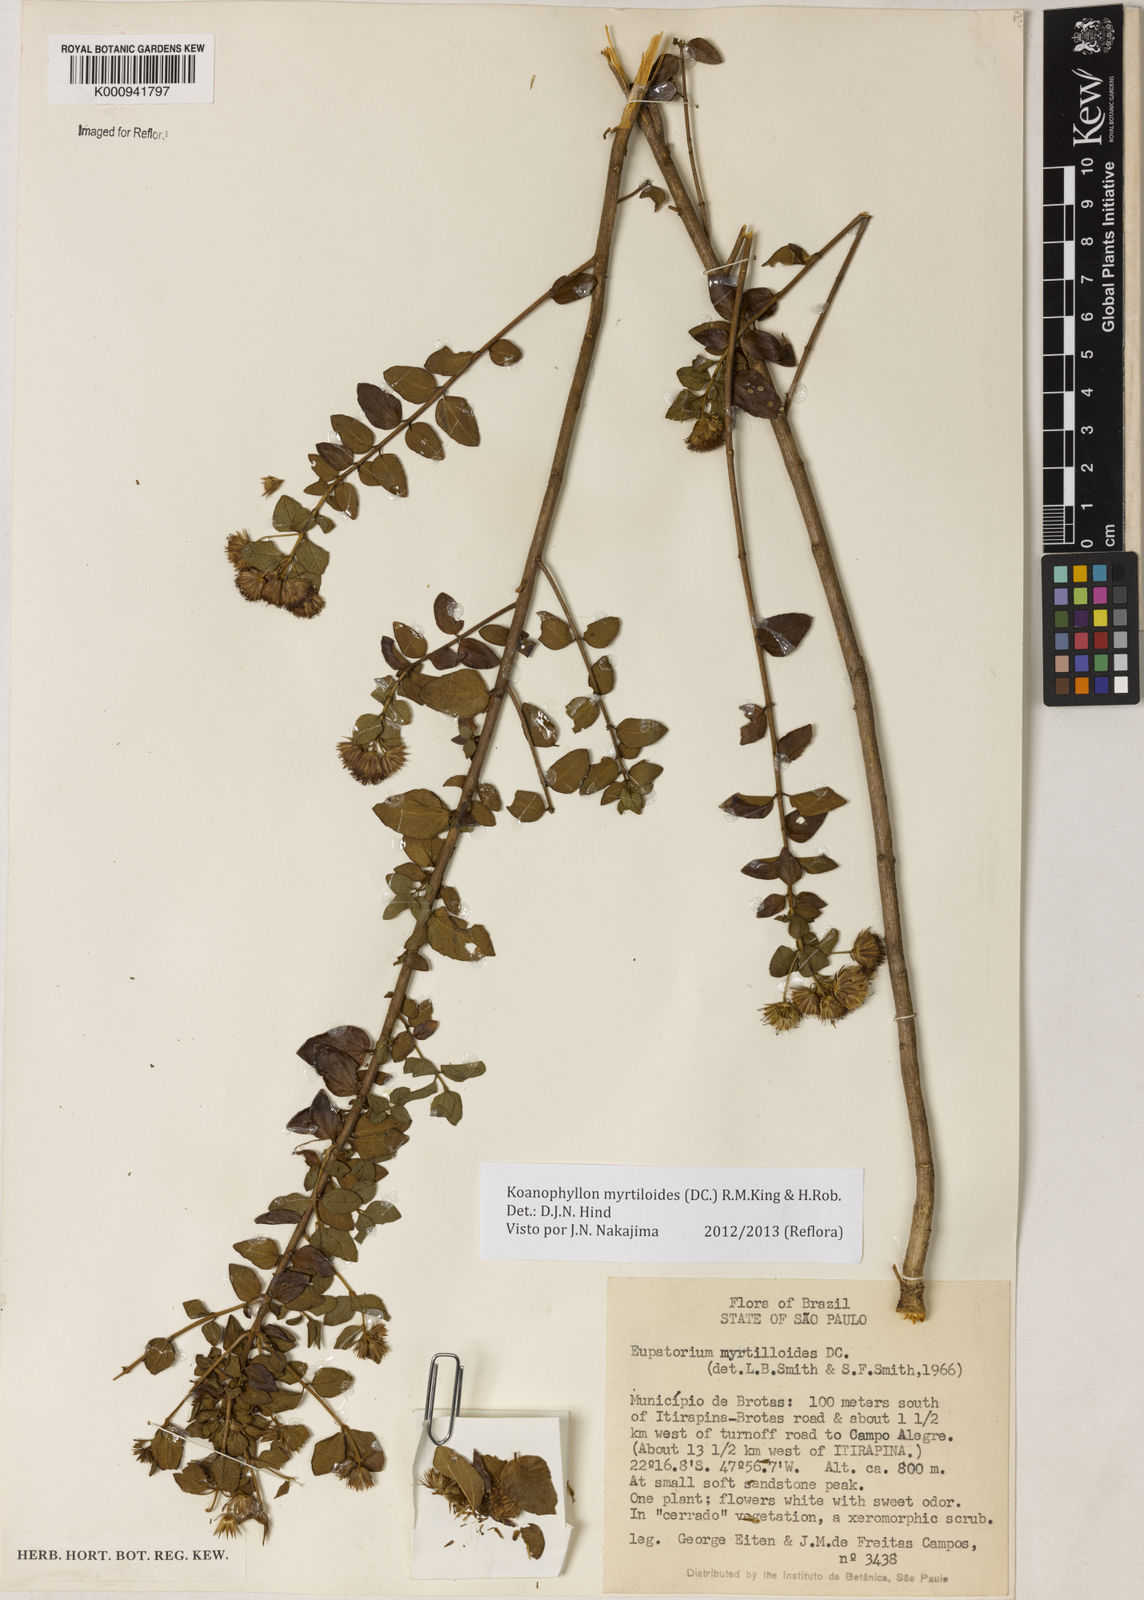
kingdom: Plantae
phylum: Tracheophyta
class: Magnoliopsida
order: Asterales
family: Asteraceae
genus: Koanophyllon
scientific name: Koanophyllon myrtilloides
